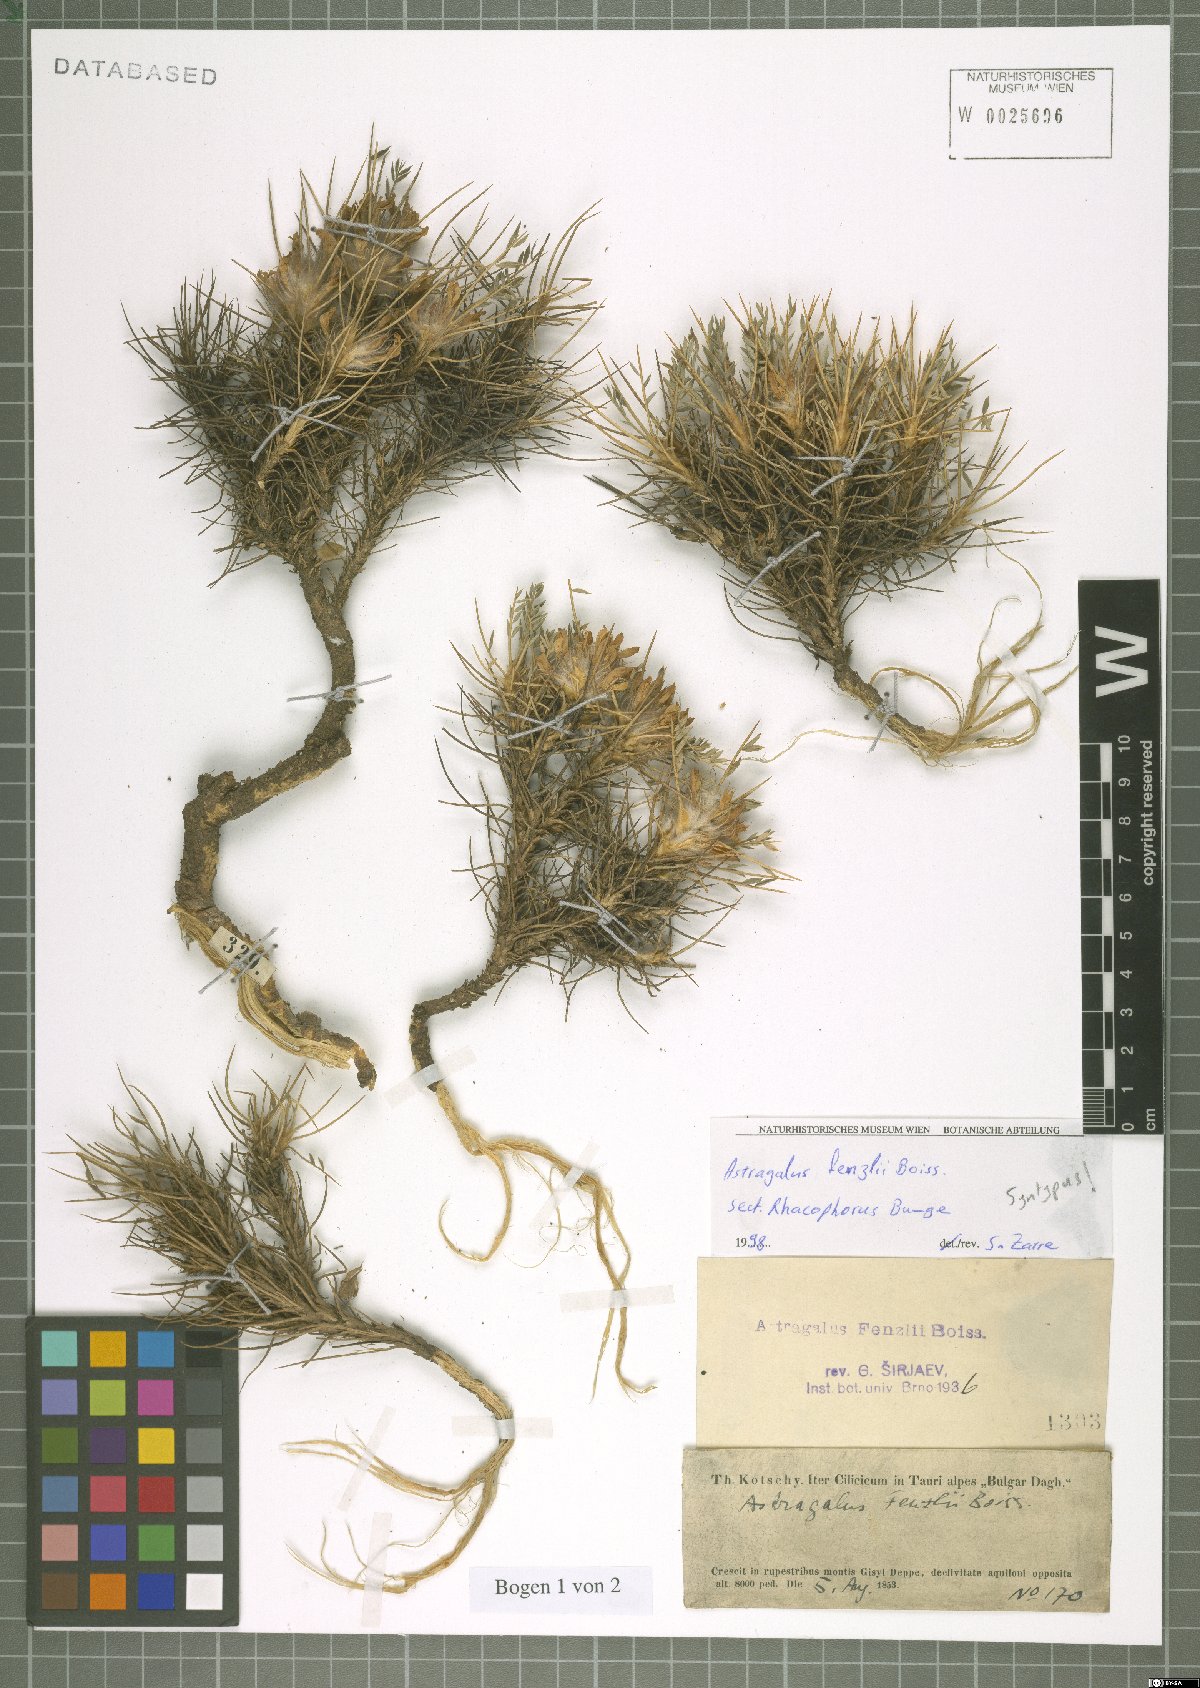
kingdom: Plantae
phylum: Tracheophyta
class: Magnoliopsida
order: Fabales
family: Fabaceae
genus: Astragalus
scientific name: Astragalus plumosus
